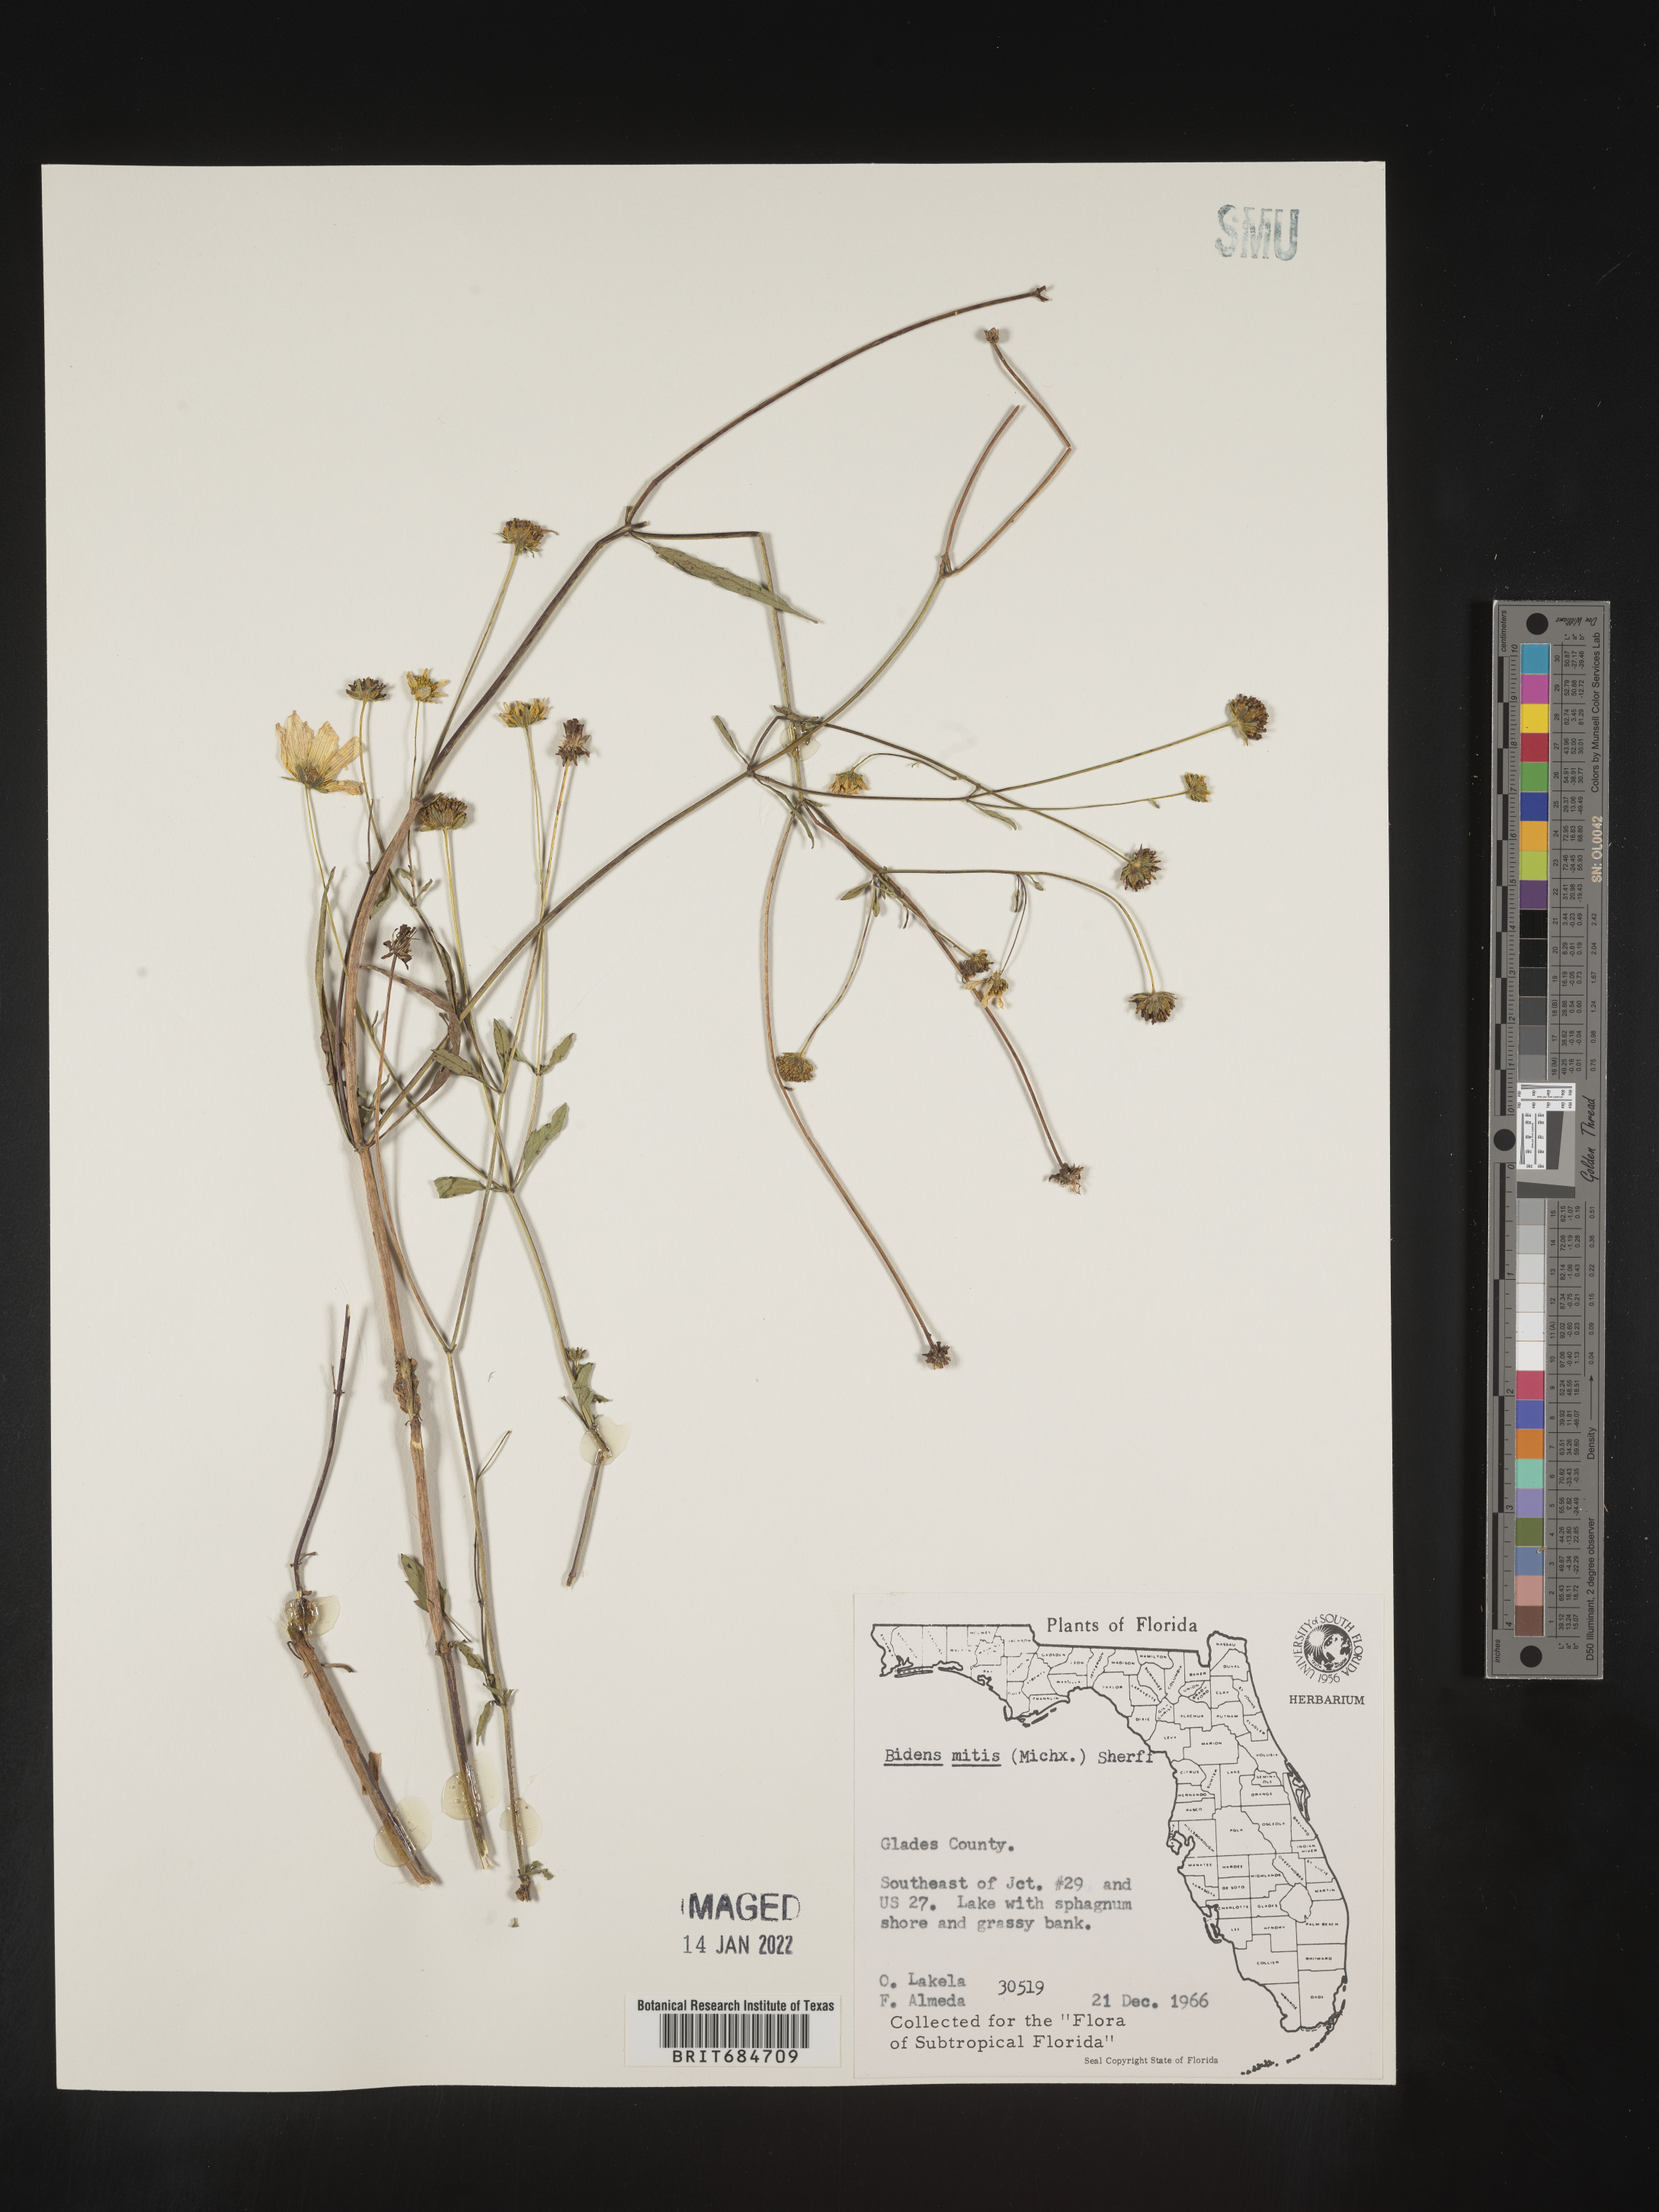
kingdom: Plantae
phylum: Tracheophyta
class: Magnoliopsida
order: Asterales
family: Asteraceae
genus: Bidens
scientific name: Bidens mitis
